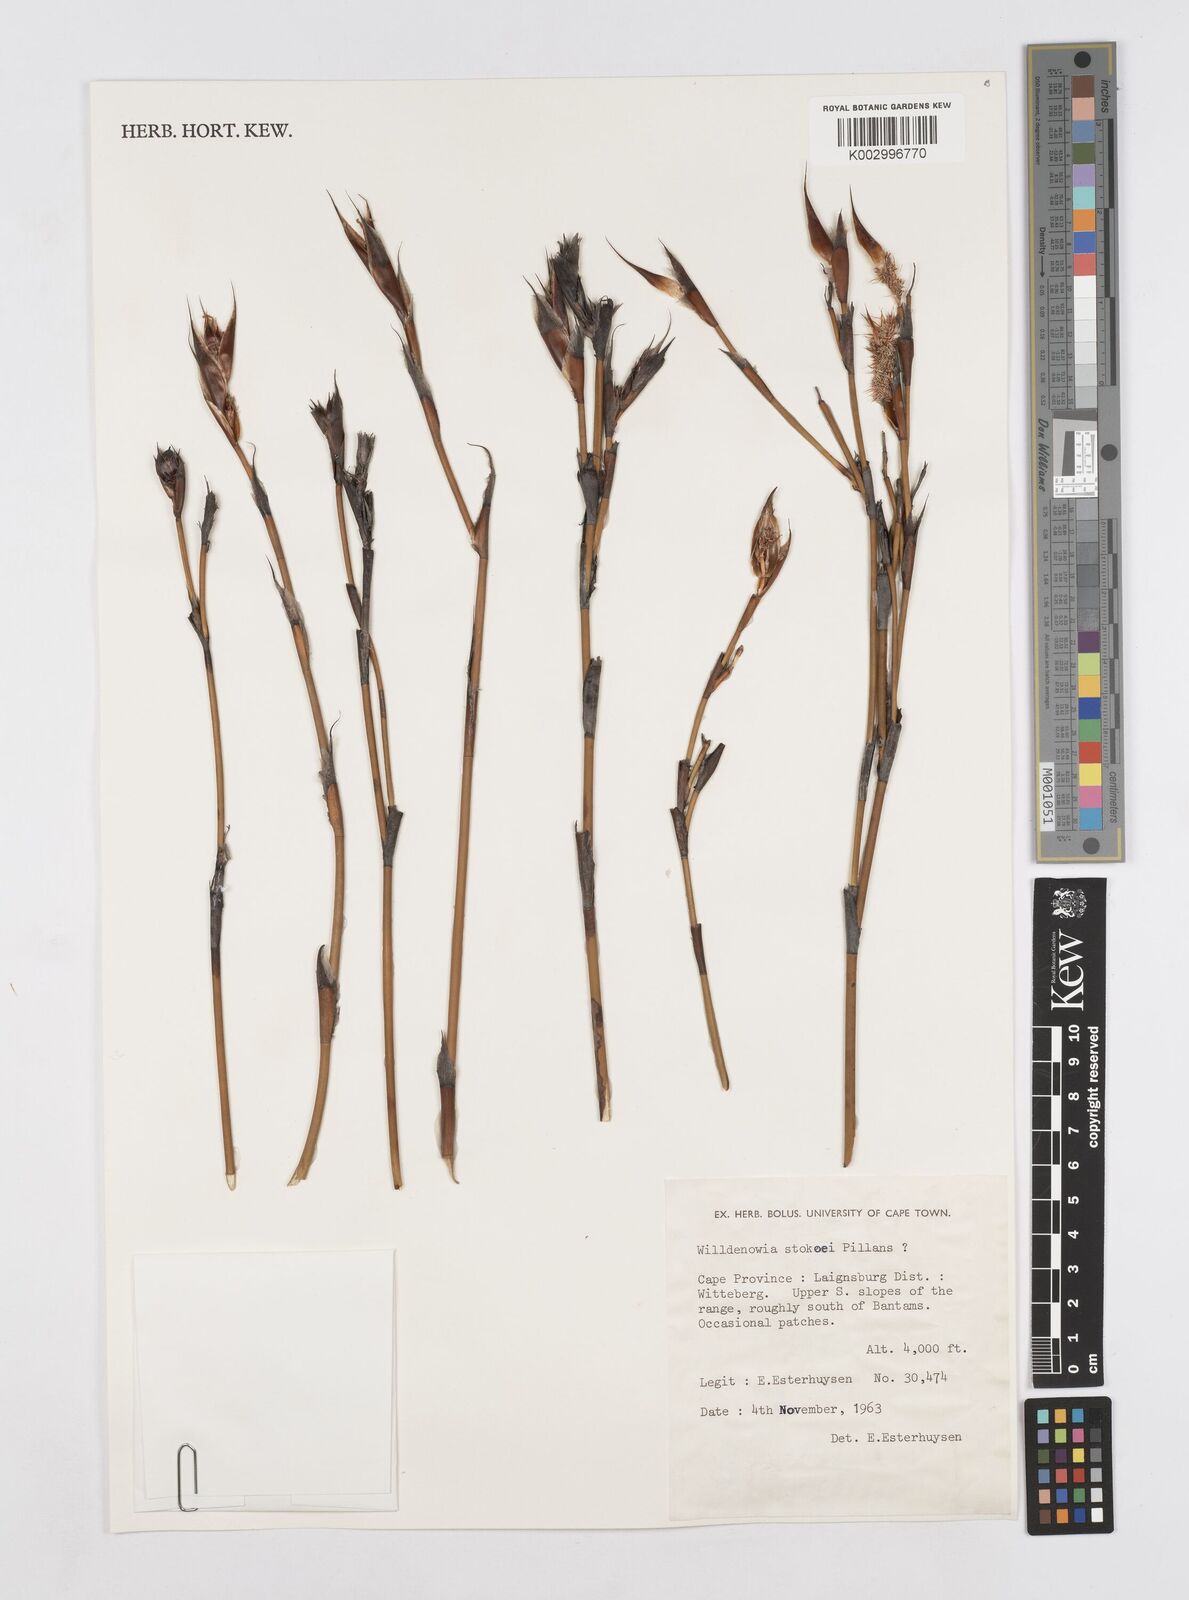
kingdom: Plantae
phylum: Tracheophyta
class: Liliopsida
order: Poales
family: Restionaceae
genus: Willdenowia
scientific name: Willdenowia stokoei
